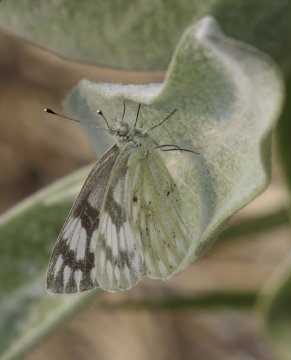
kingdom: Animalia
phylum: Arthropoda
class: Insecta
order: Lepidoptera
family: Pieridae
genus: Pontia
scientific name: Pontia occidentalis
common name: Western White
